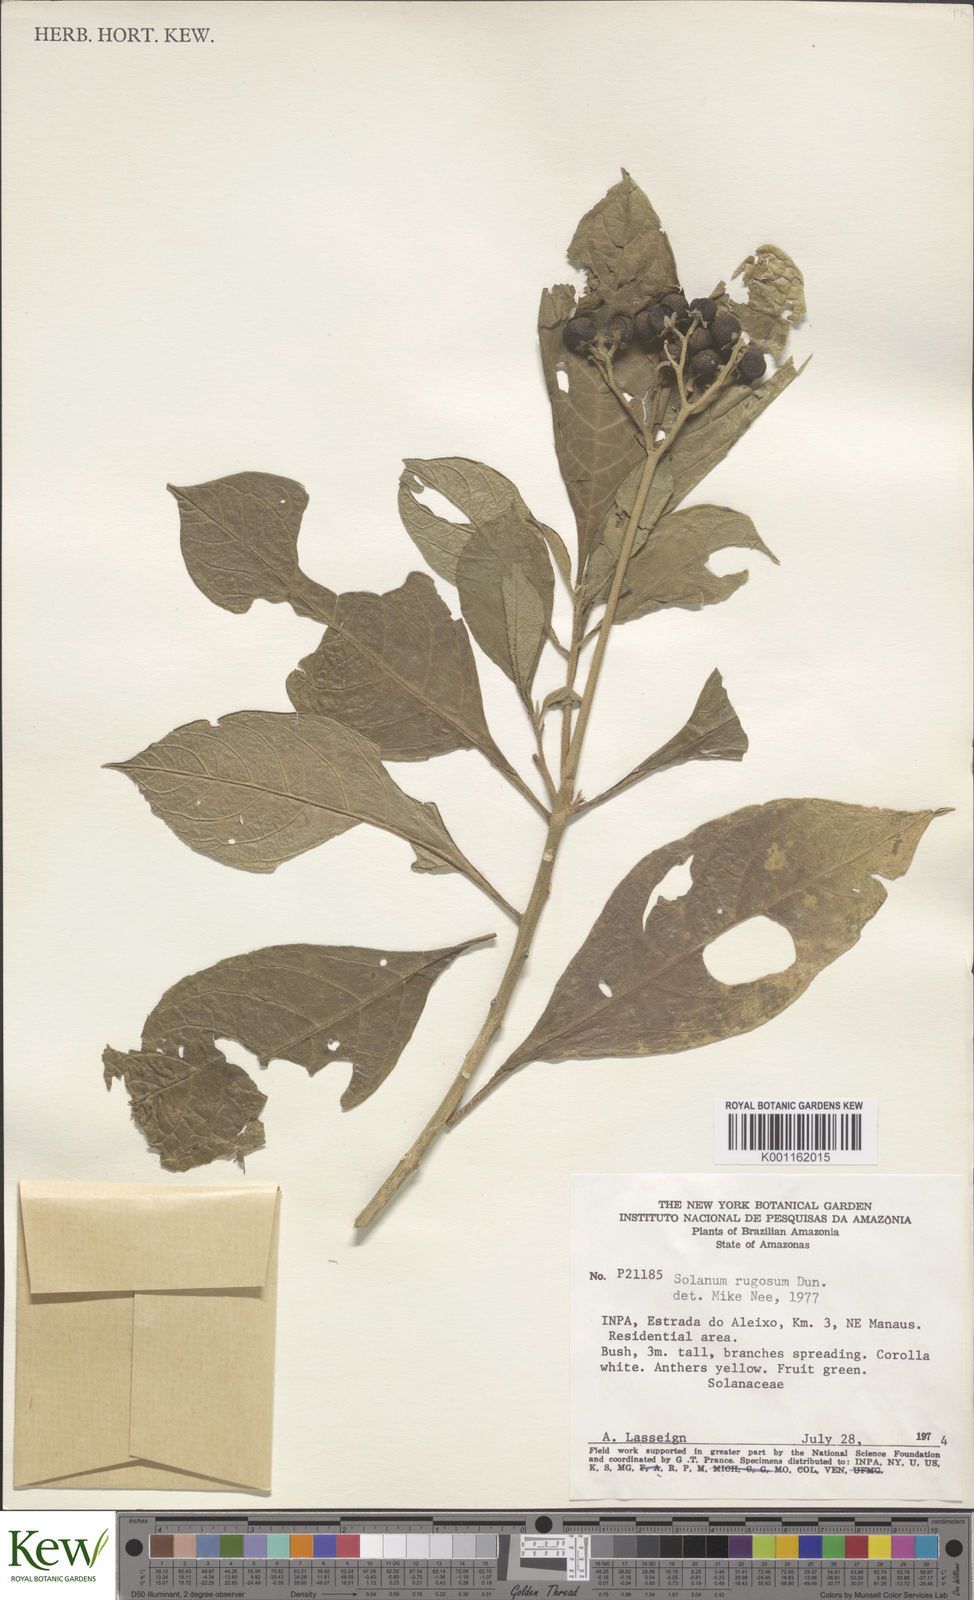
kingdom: Plantae
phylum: Tracheophyta
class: Magnoliopsida
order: Solanales
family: Solanaceae
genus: Solanum
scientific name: Solanum rugosum
